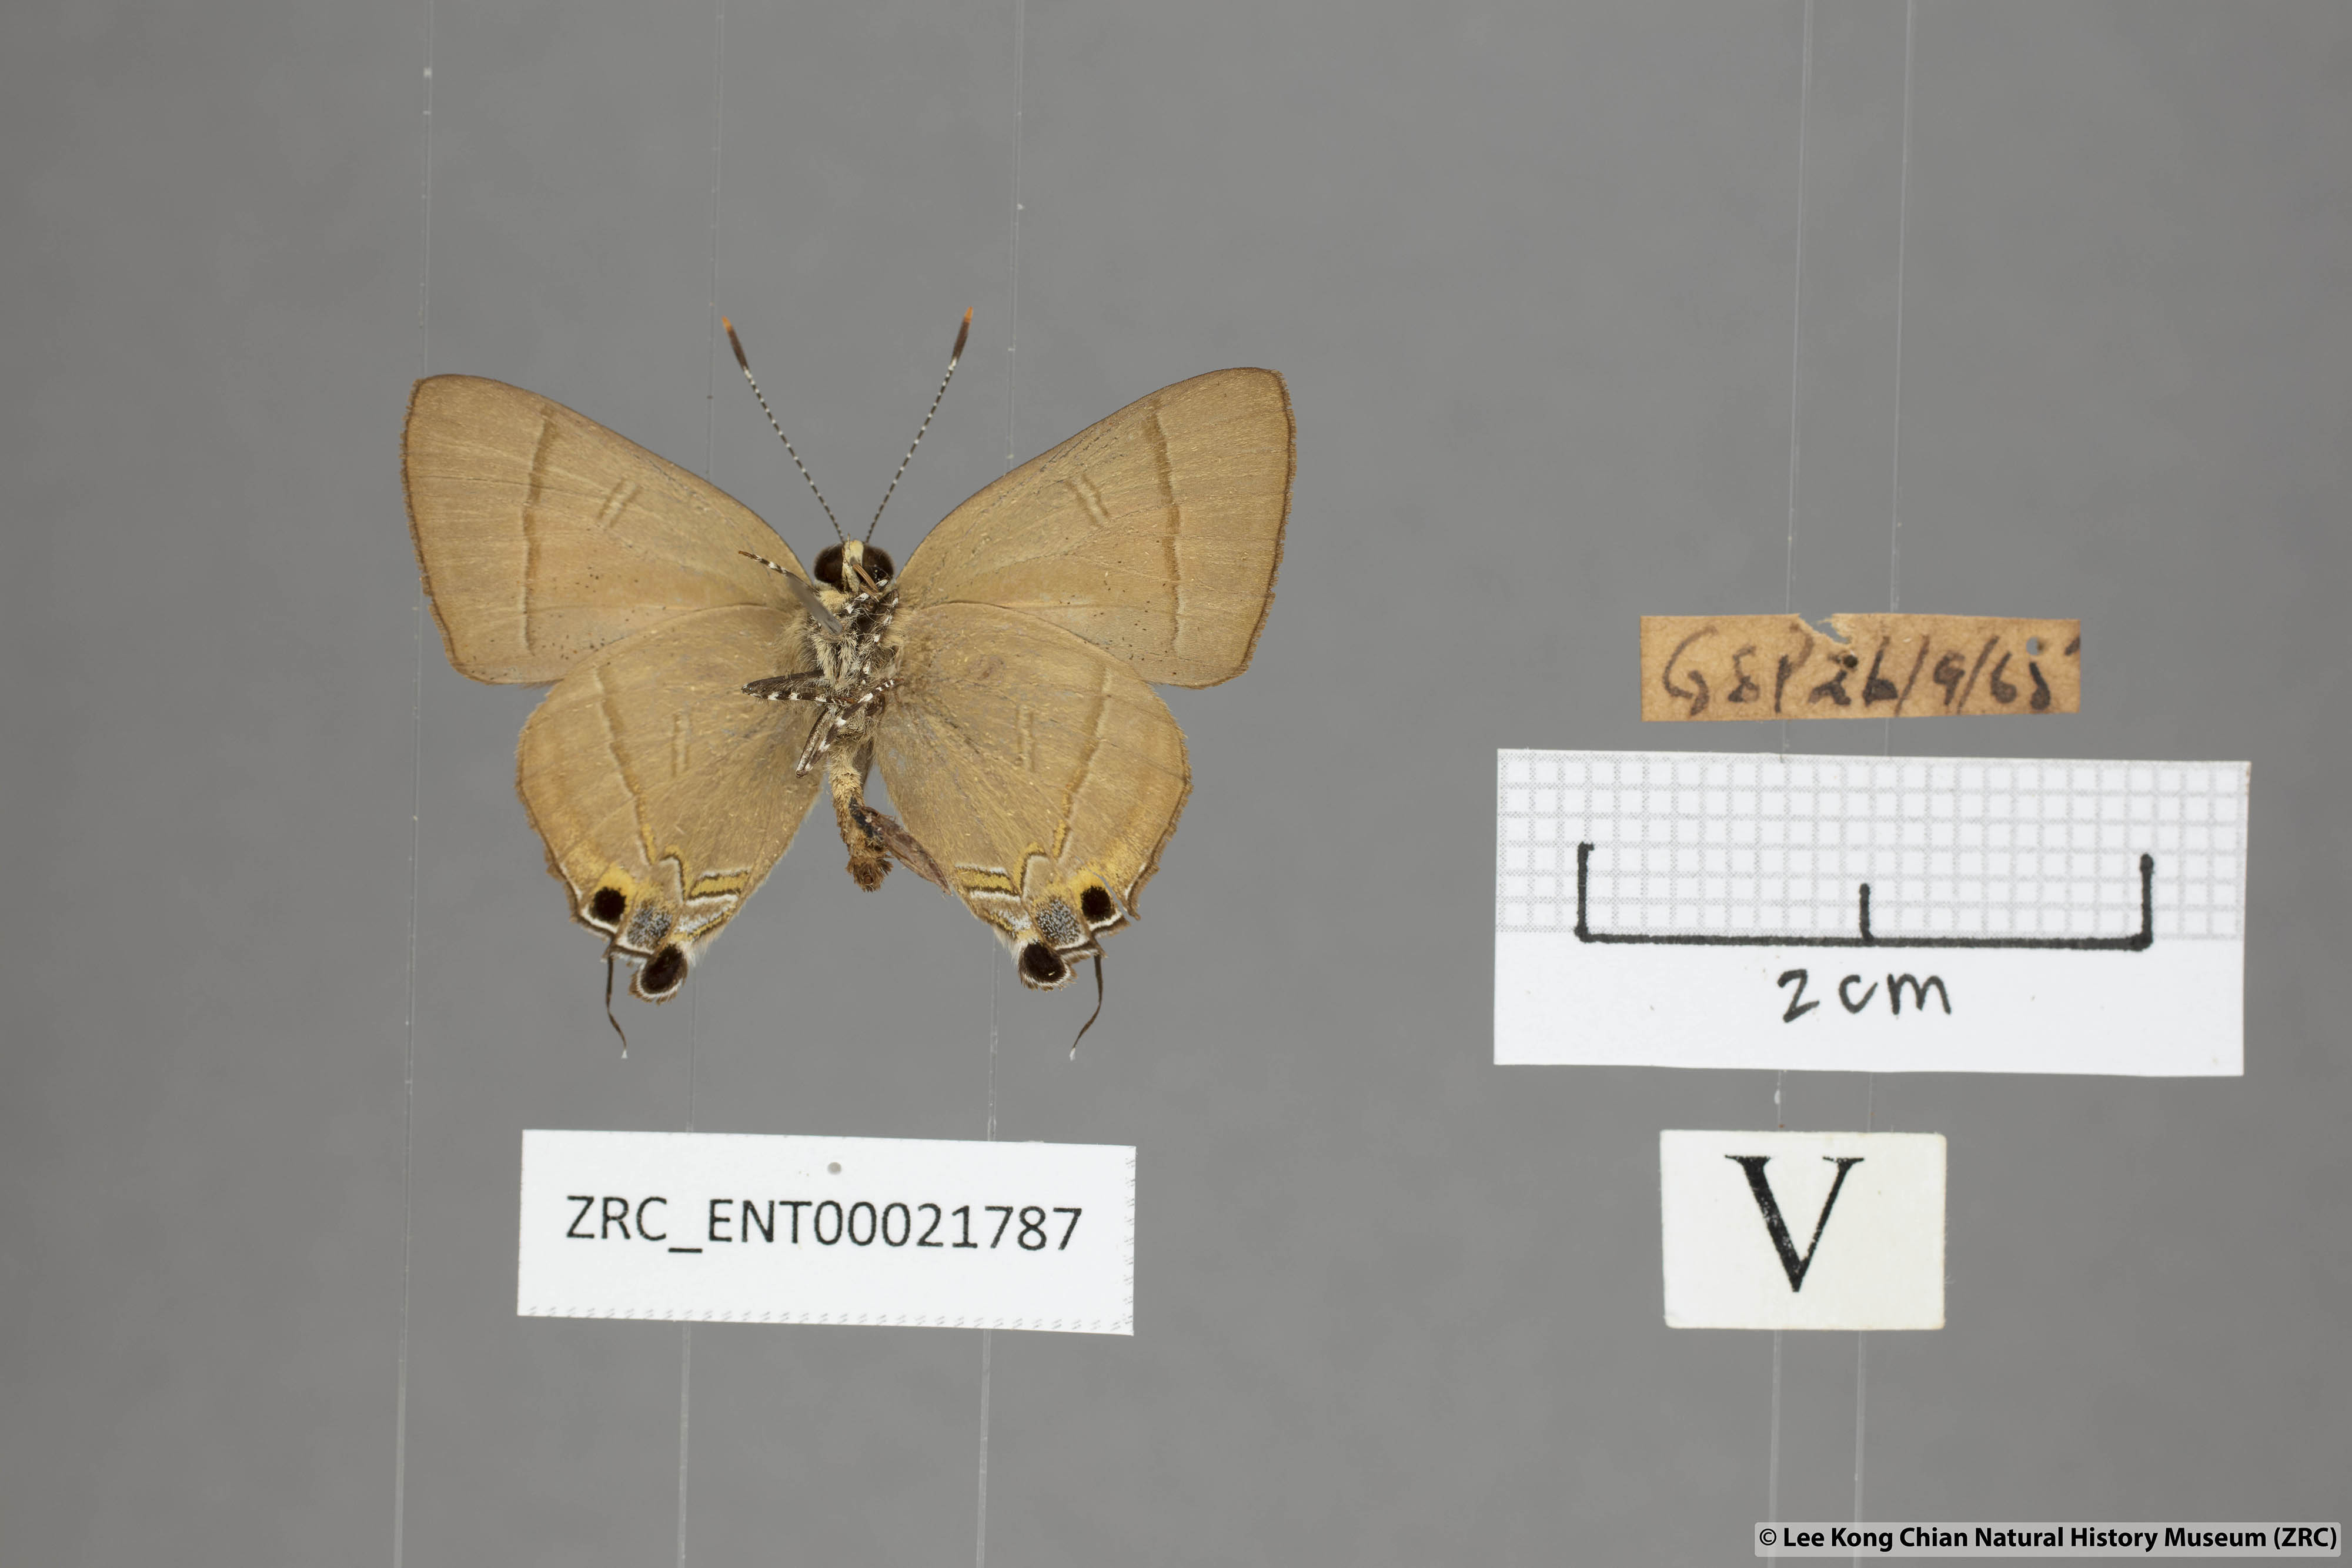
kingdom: Animalia
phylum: Arthropoda
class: Insecta
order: Lepidoptera
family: Lycaenidae
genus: Rapala
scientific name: Rapala dieneces
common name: Scarlet flash
